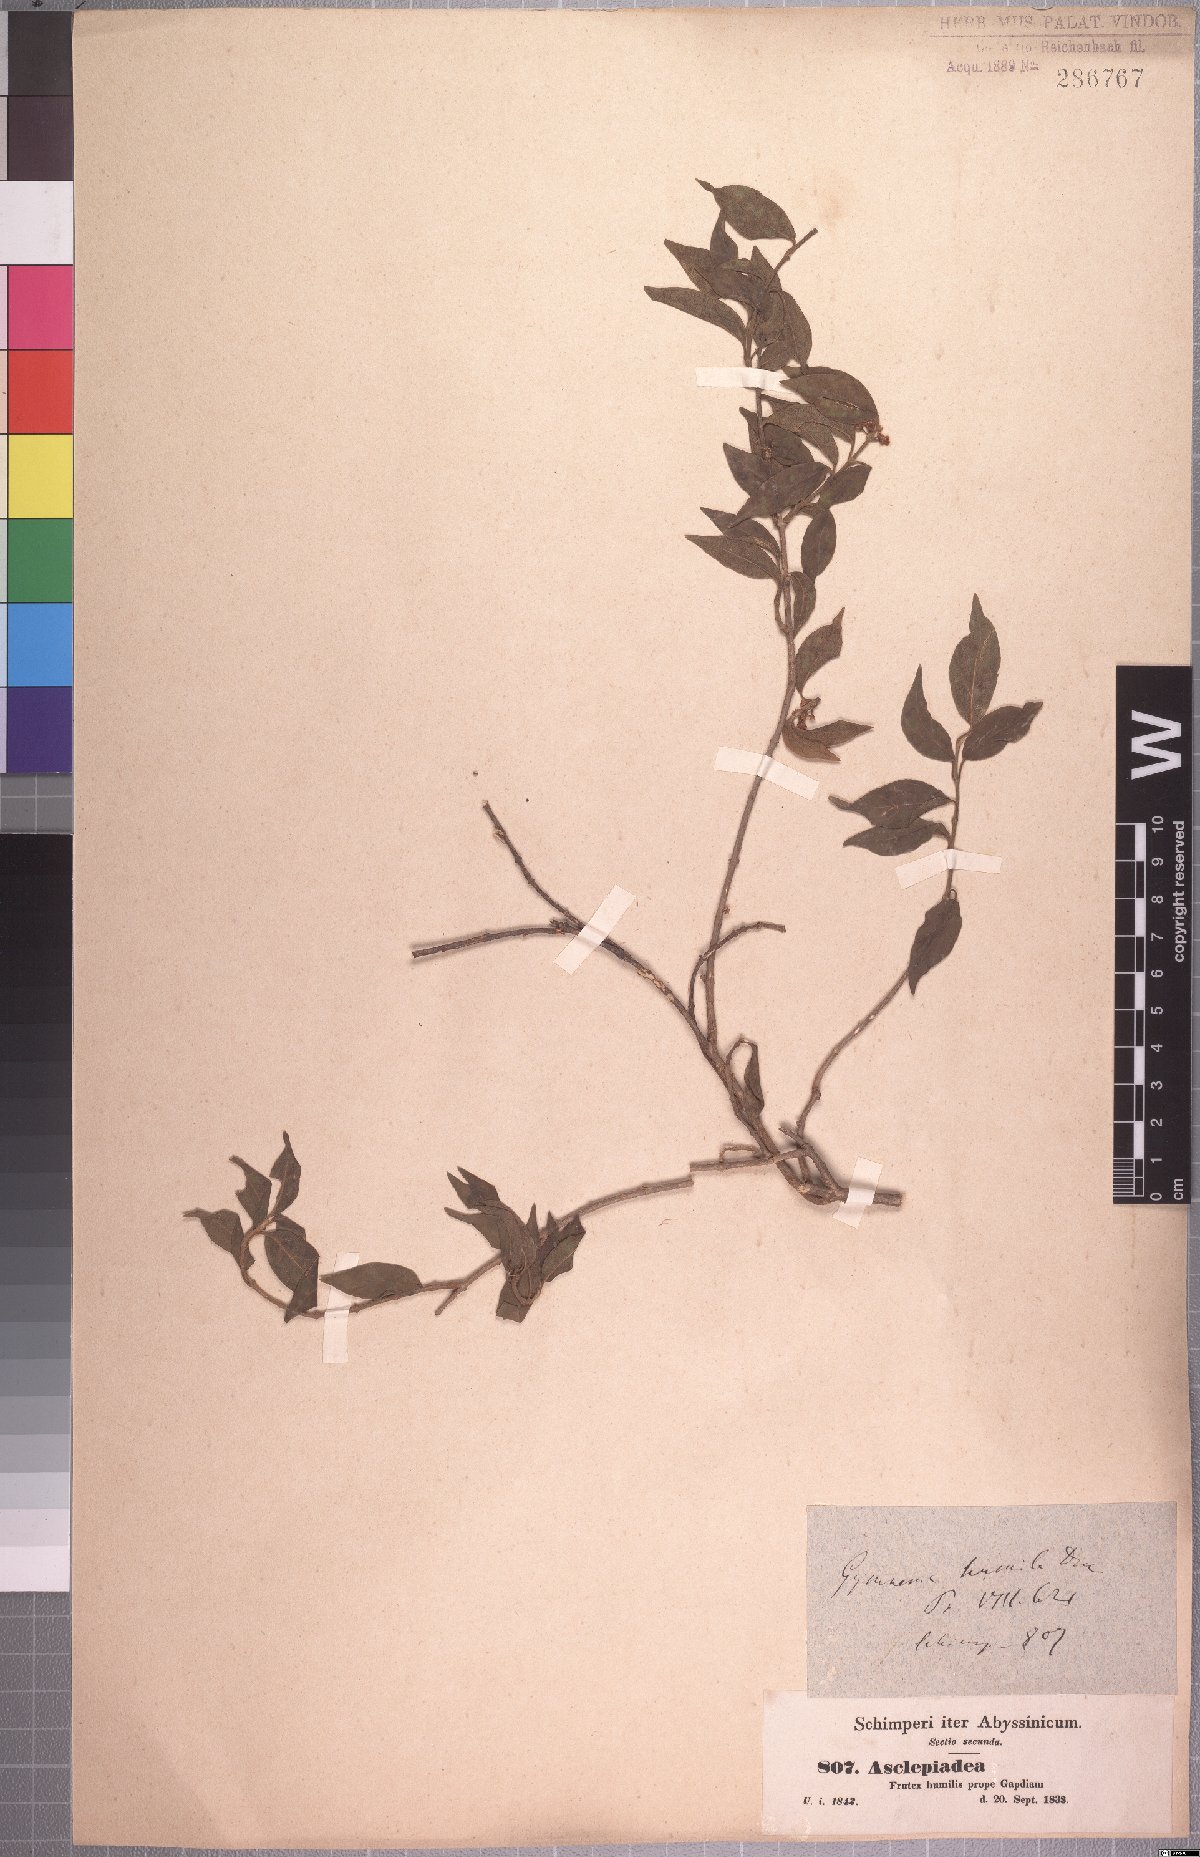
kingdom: Plantae
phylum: Tracheophyta
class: Magnoliopsida
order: Gentianales
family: Apocynaceae
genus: Gymnema
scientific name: Gymnema sylvestre
